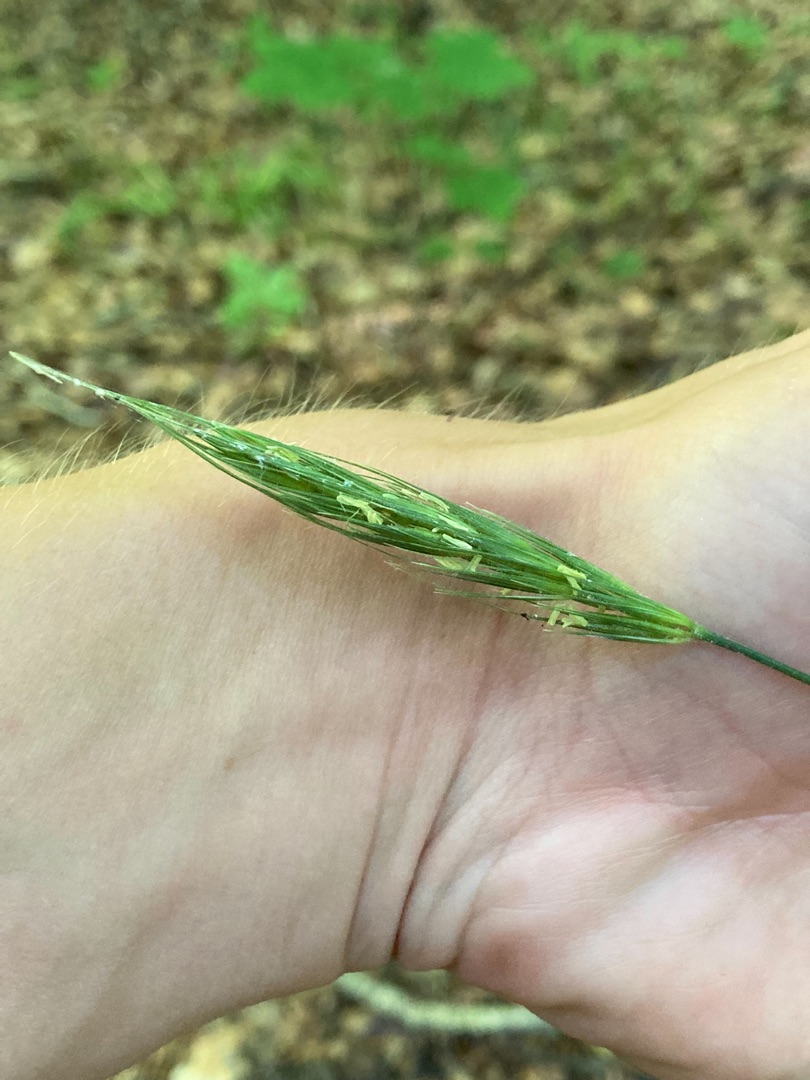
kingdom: Plantae
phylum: Tracheophyta
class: Liliopsida
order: Poales
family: Poaceae
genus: Hordelymus
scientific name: Hordelymus europaeus
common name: Skovbyg
